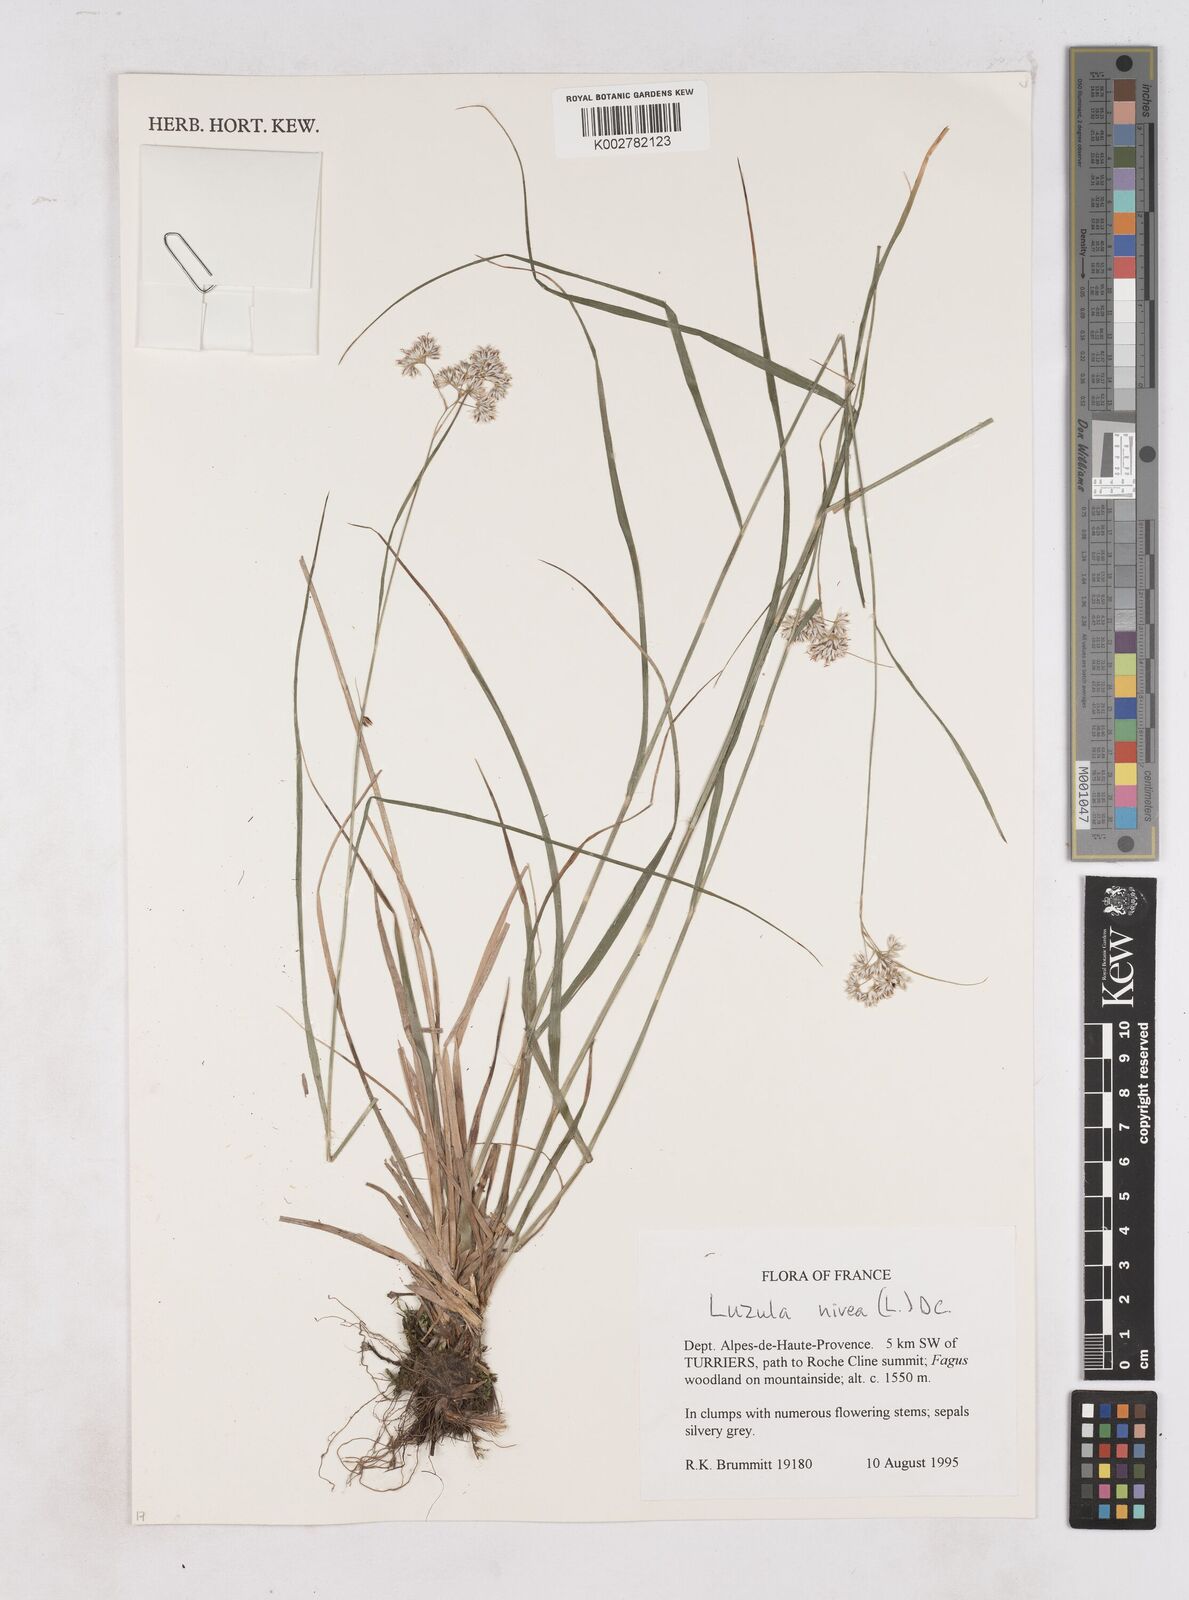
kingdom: Plantae
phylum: Tracheophyta
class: Liliopsida
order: Poales
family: Juncaceae
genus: Luzula
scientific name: Luzula nivea
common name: Snow-white wood-rush
